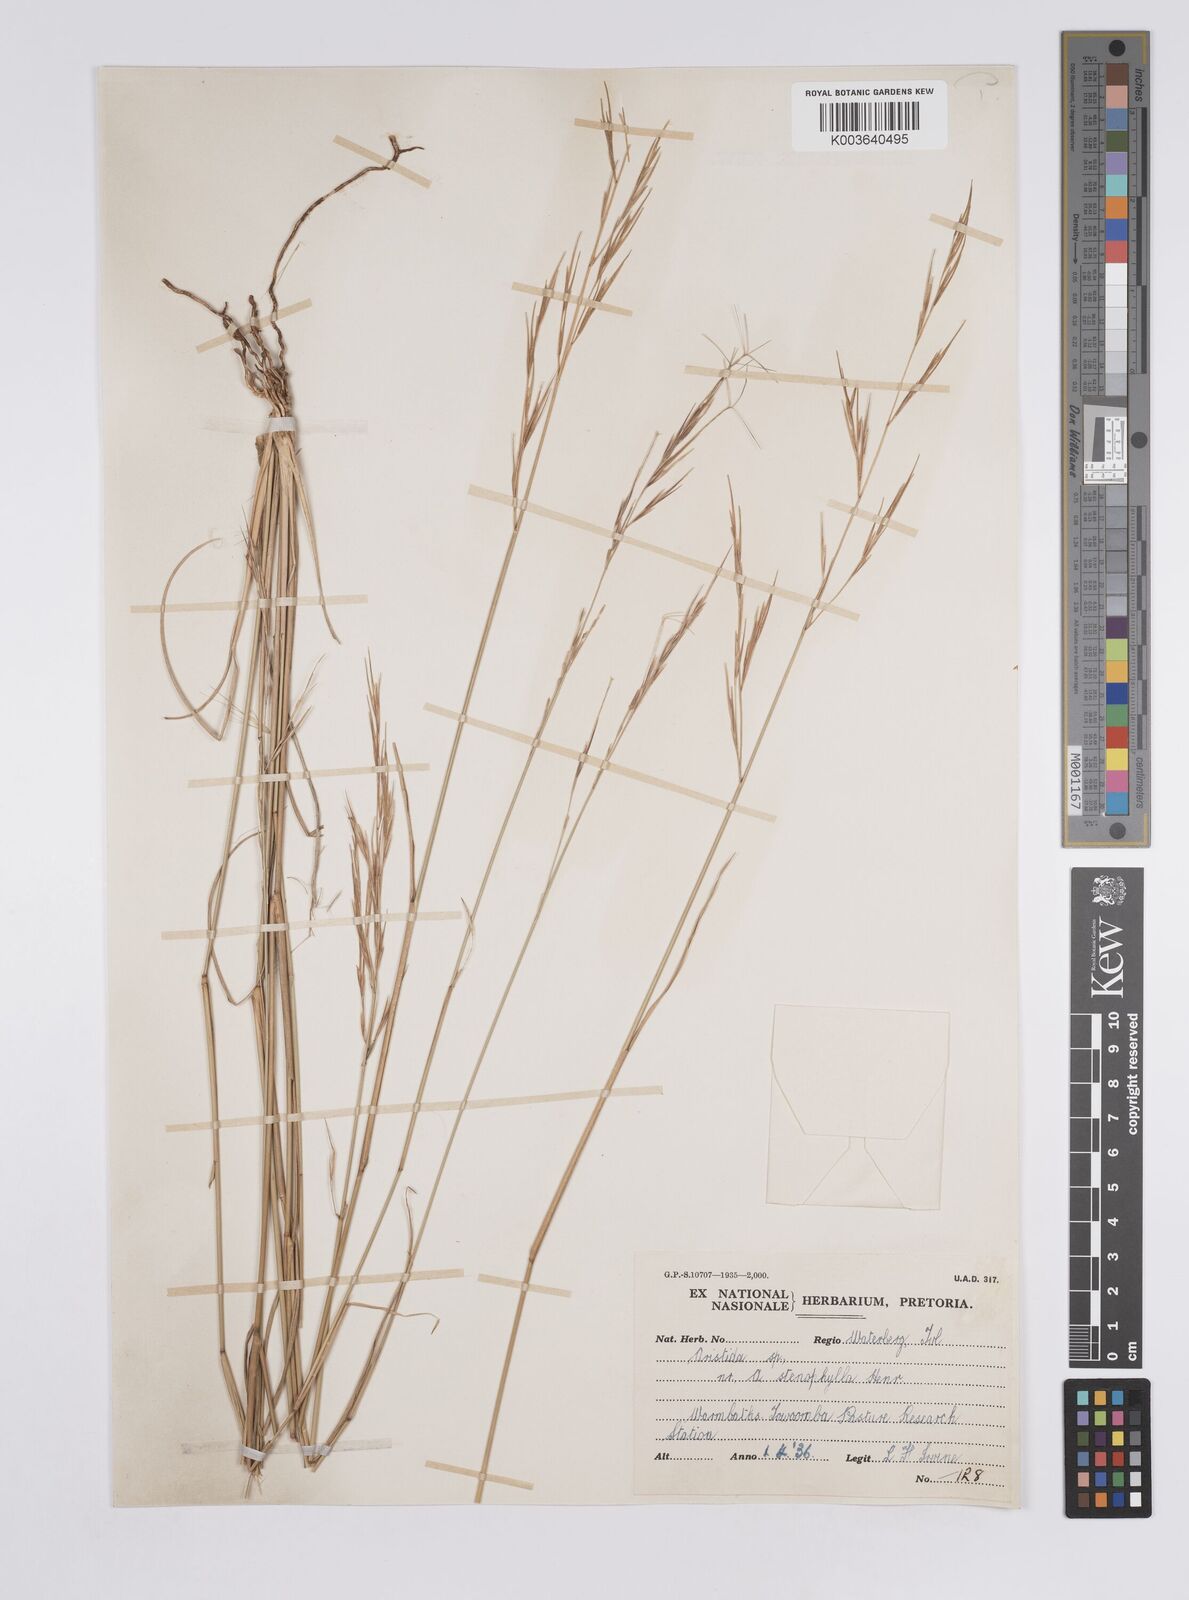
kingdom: Plantae
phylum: Tracheophyta
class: Liliopsida
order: Poales
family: Poaceae
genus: Aristida
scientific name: Aristida
